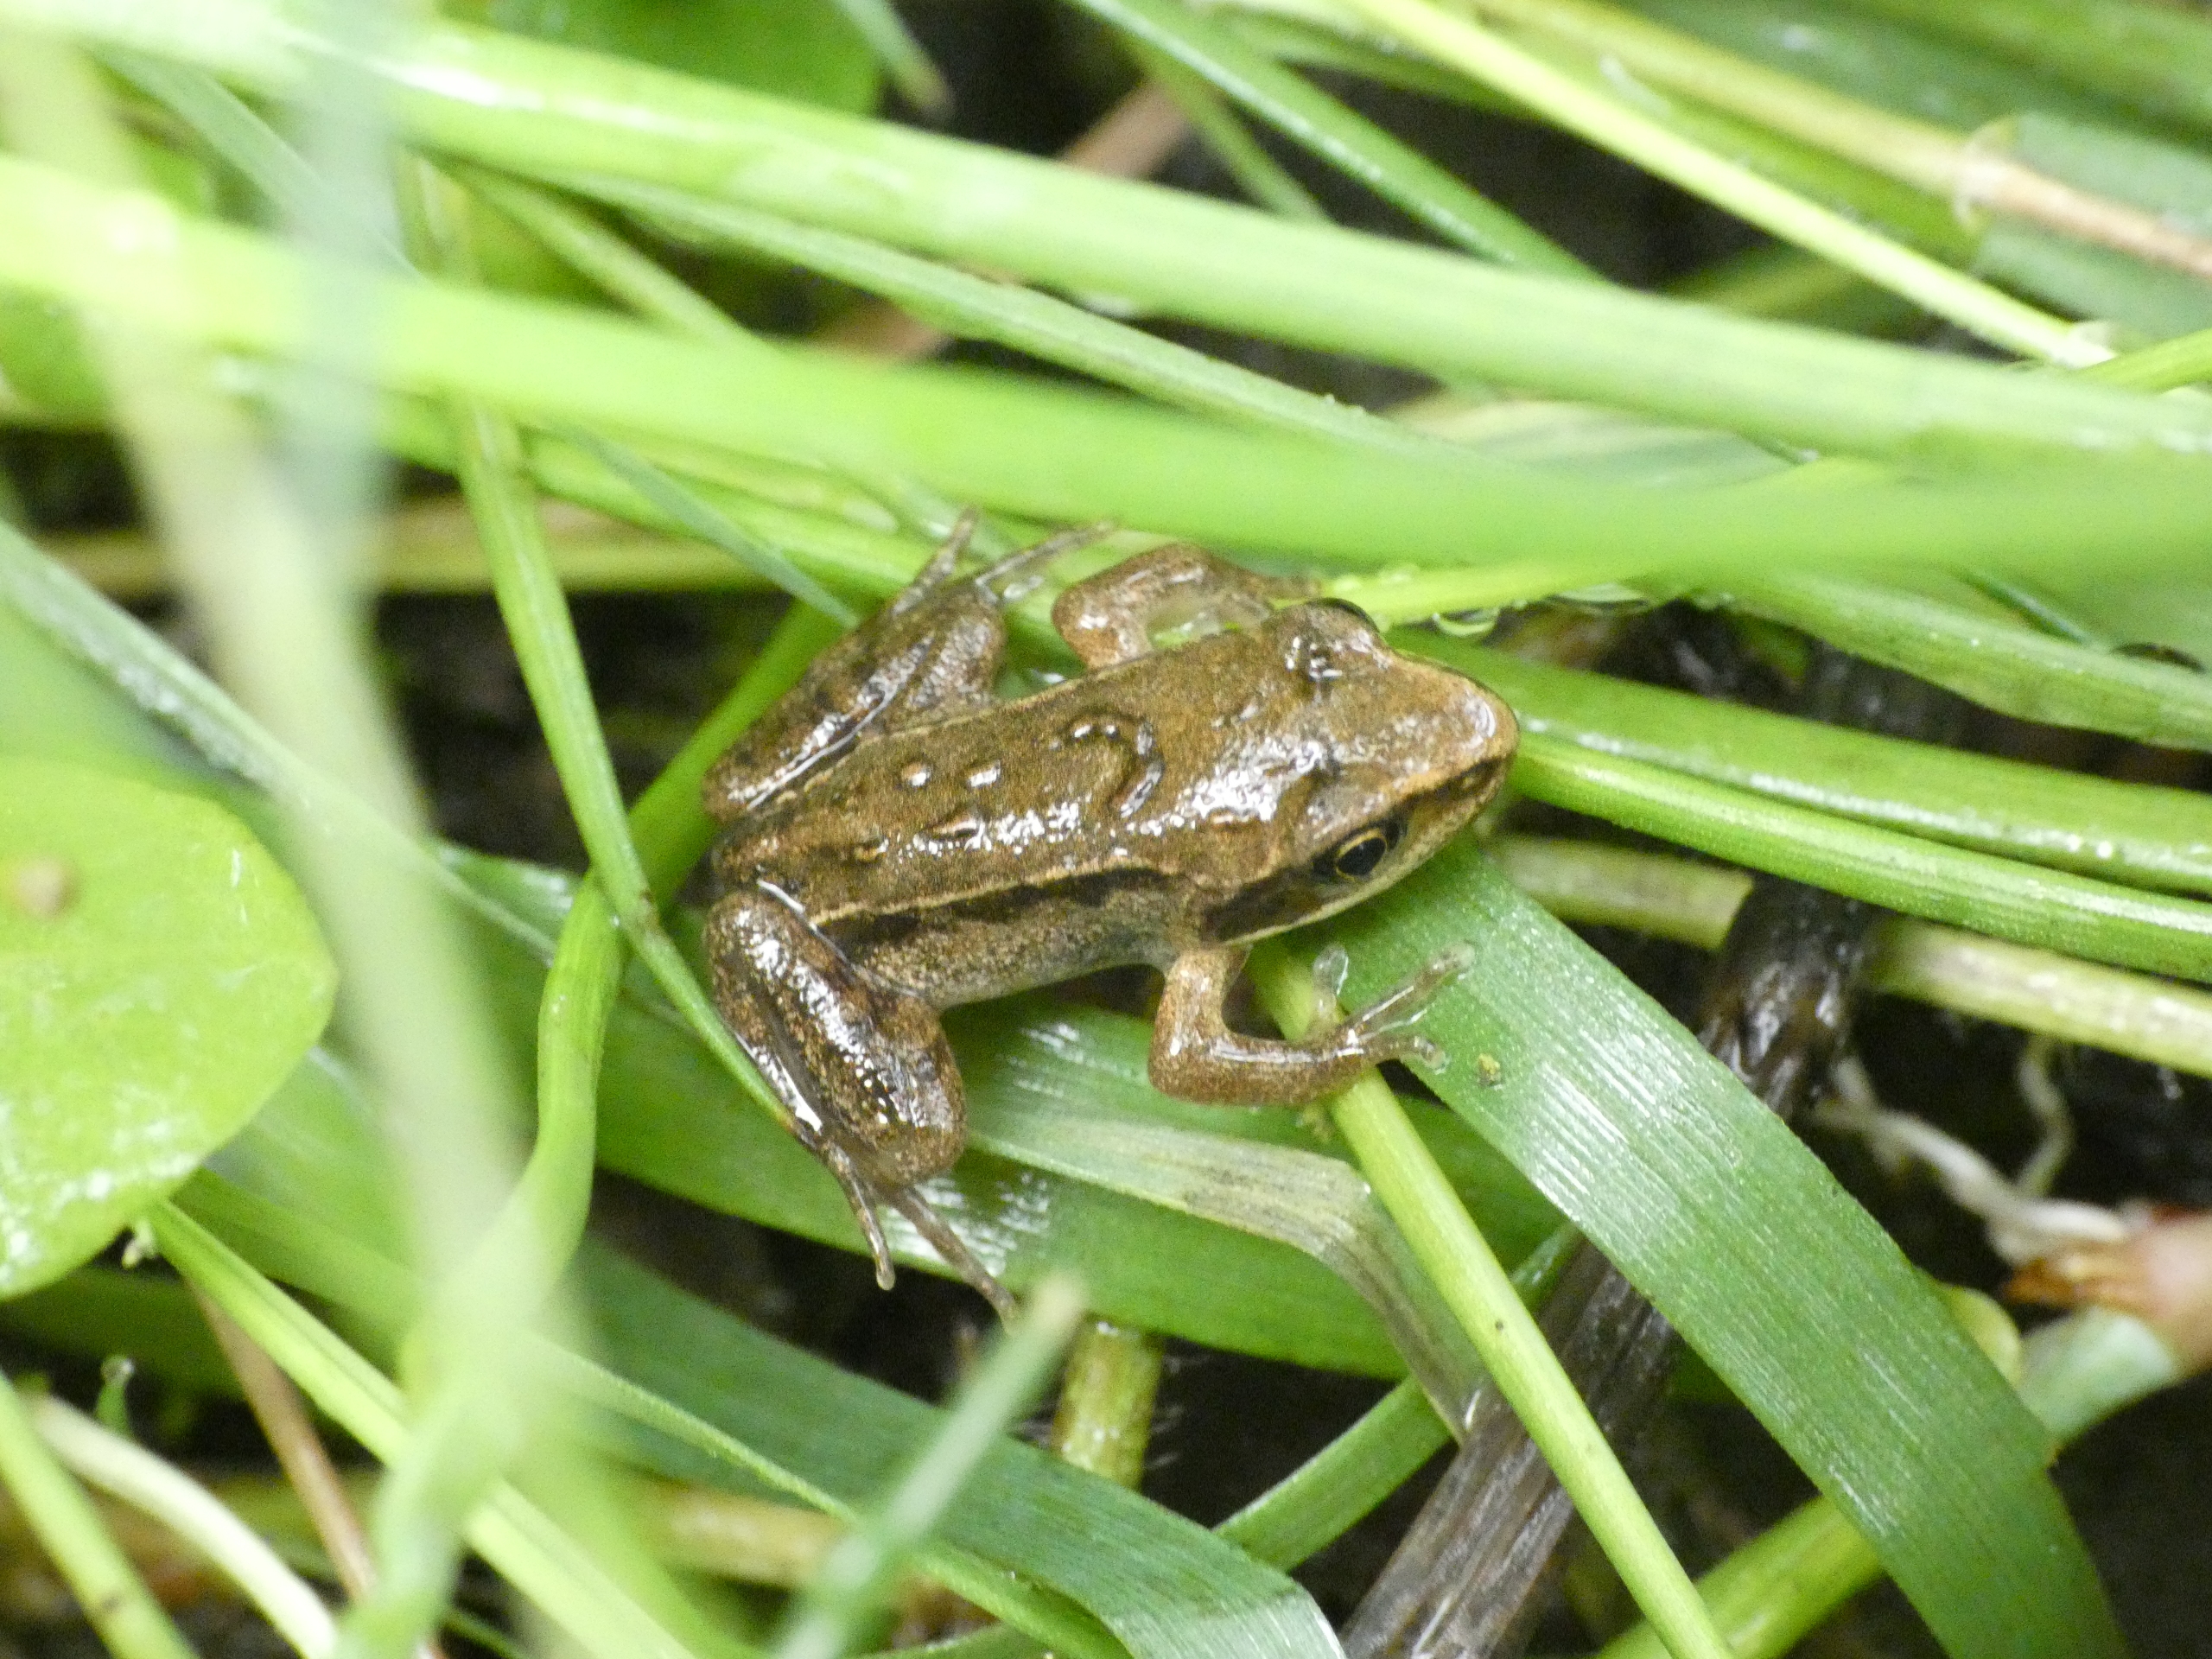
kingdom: Animalia
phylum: Chordata
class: Amphibia
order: Anura
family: Ranidae
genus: Rana
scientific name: Rana arvalis
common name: Spidssnudet frø
